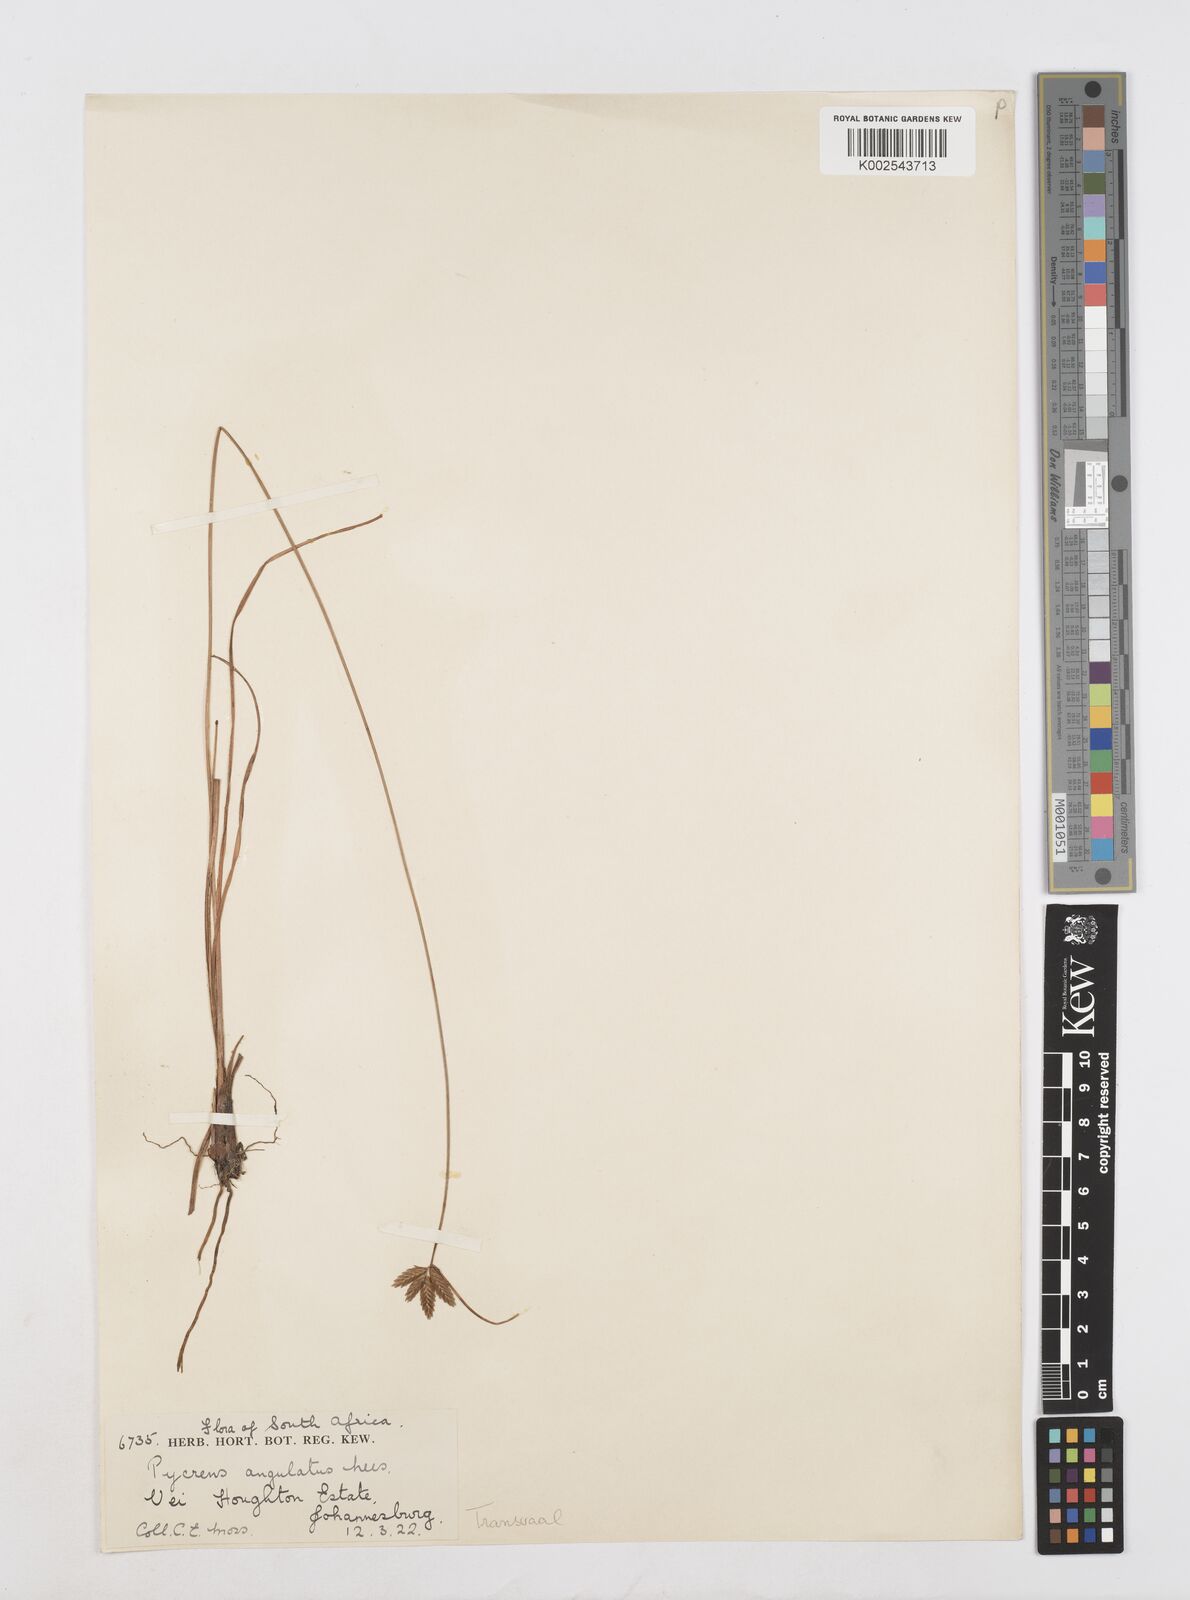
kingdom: Plantae
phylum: Tracheophyta
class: Liliopsida
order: Poales
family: Cyperaceae
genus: Cyperus
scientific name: Cyperus unioloides
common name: Uniola flatsedge
